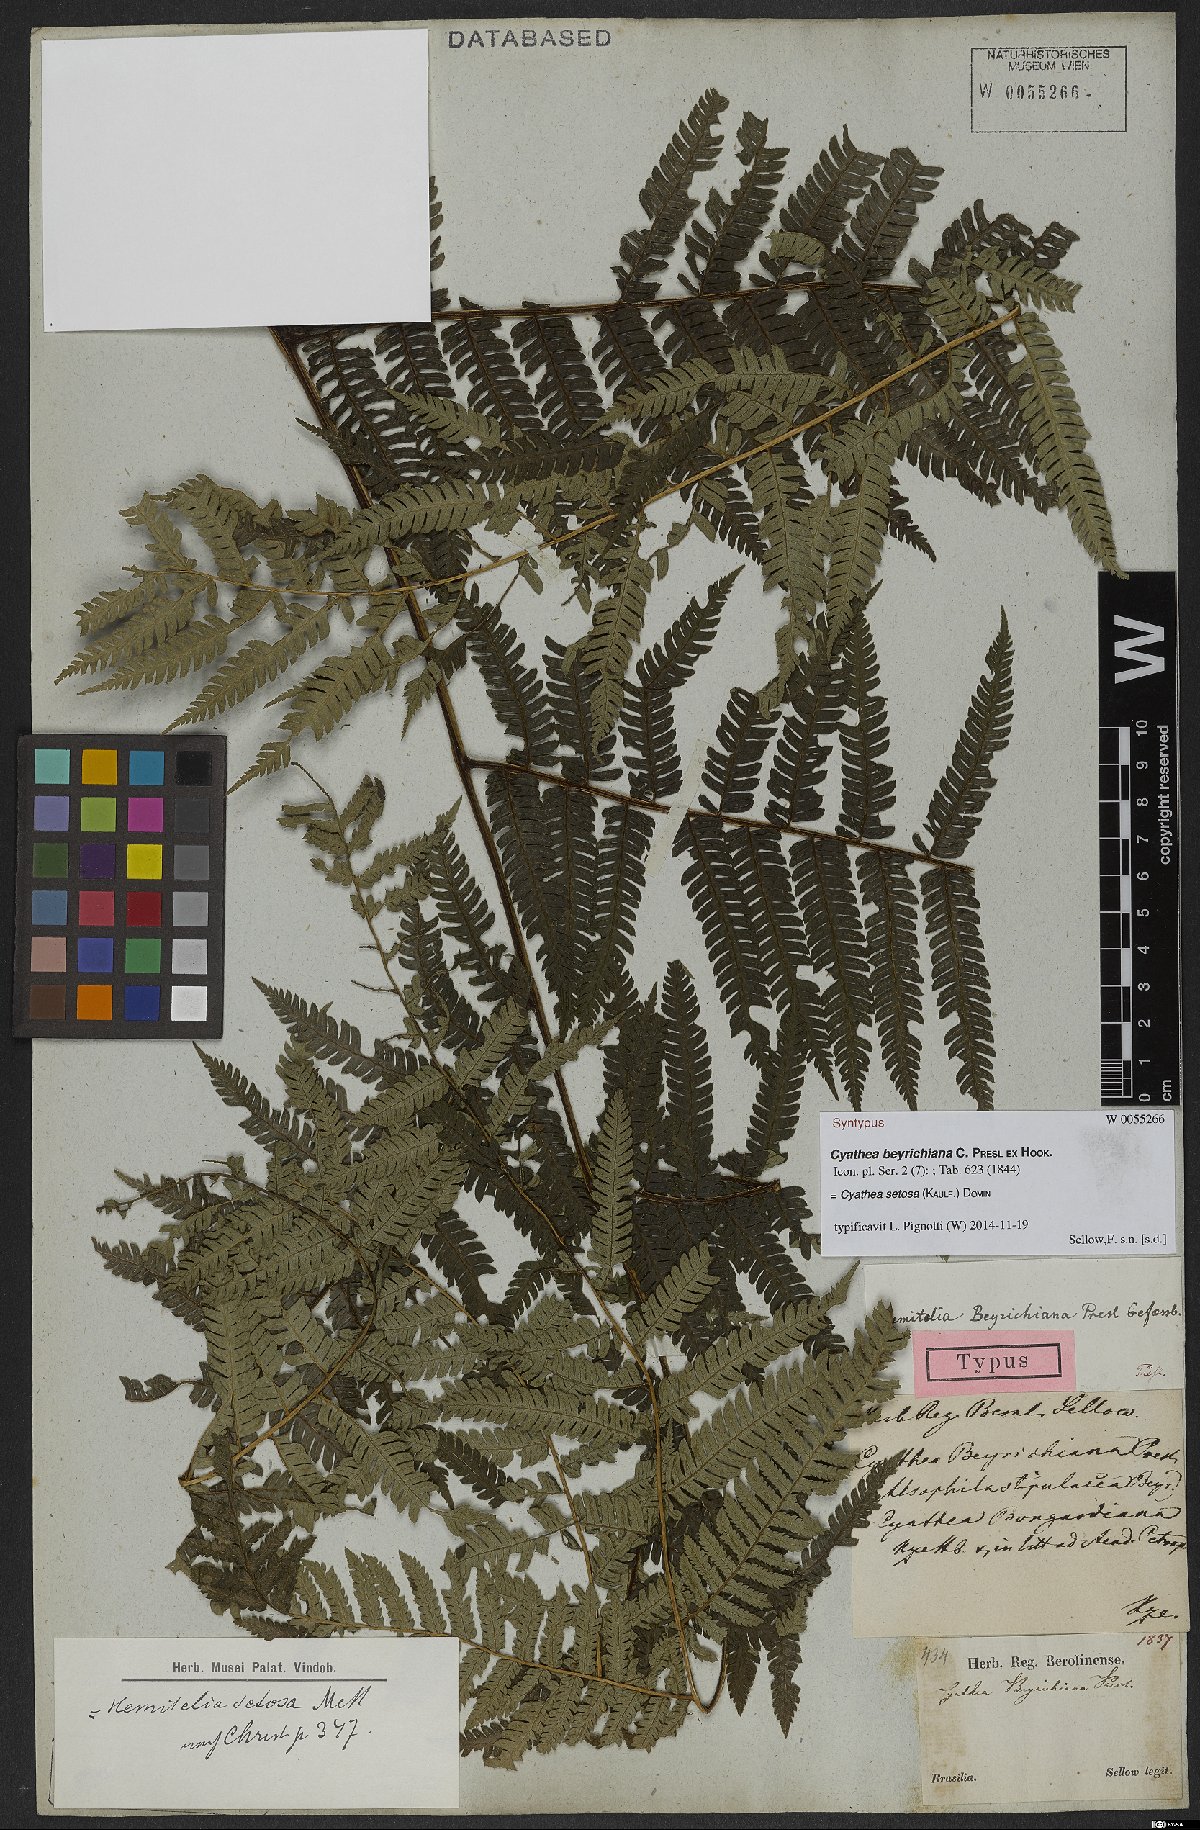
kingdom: Plantae
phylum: Tracheophyta
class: Polypodiopsida
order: Cyatheales
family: Cyatheaceae
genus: Alsophila
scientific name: Alsophila setosa
